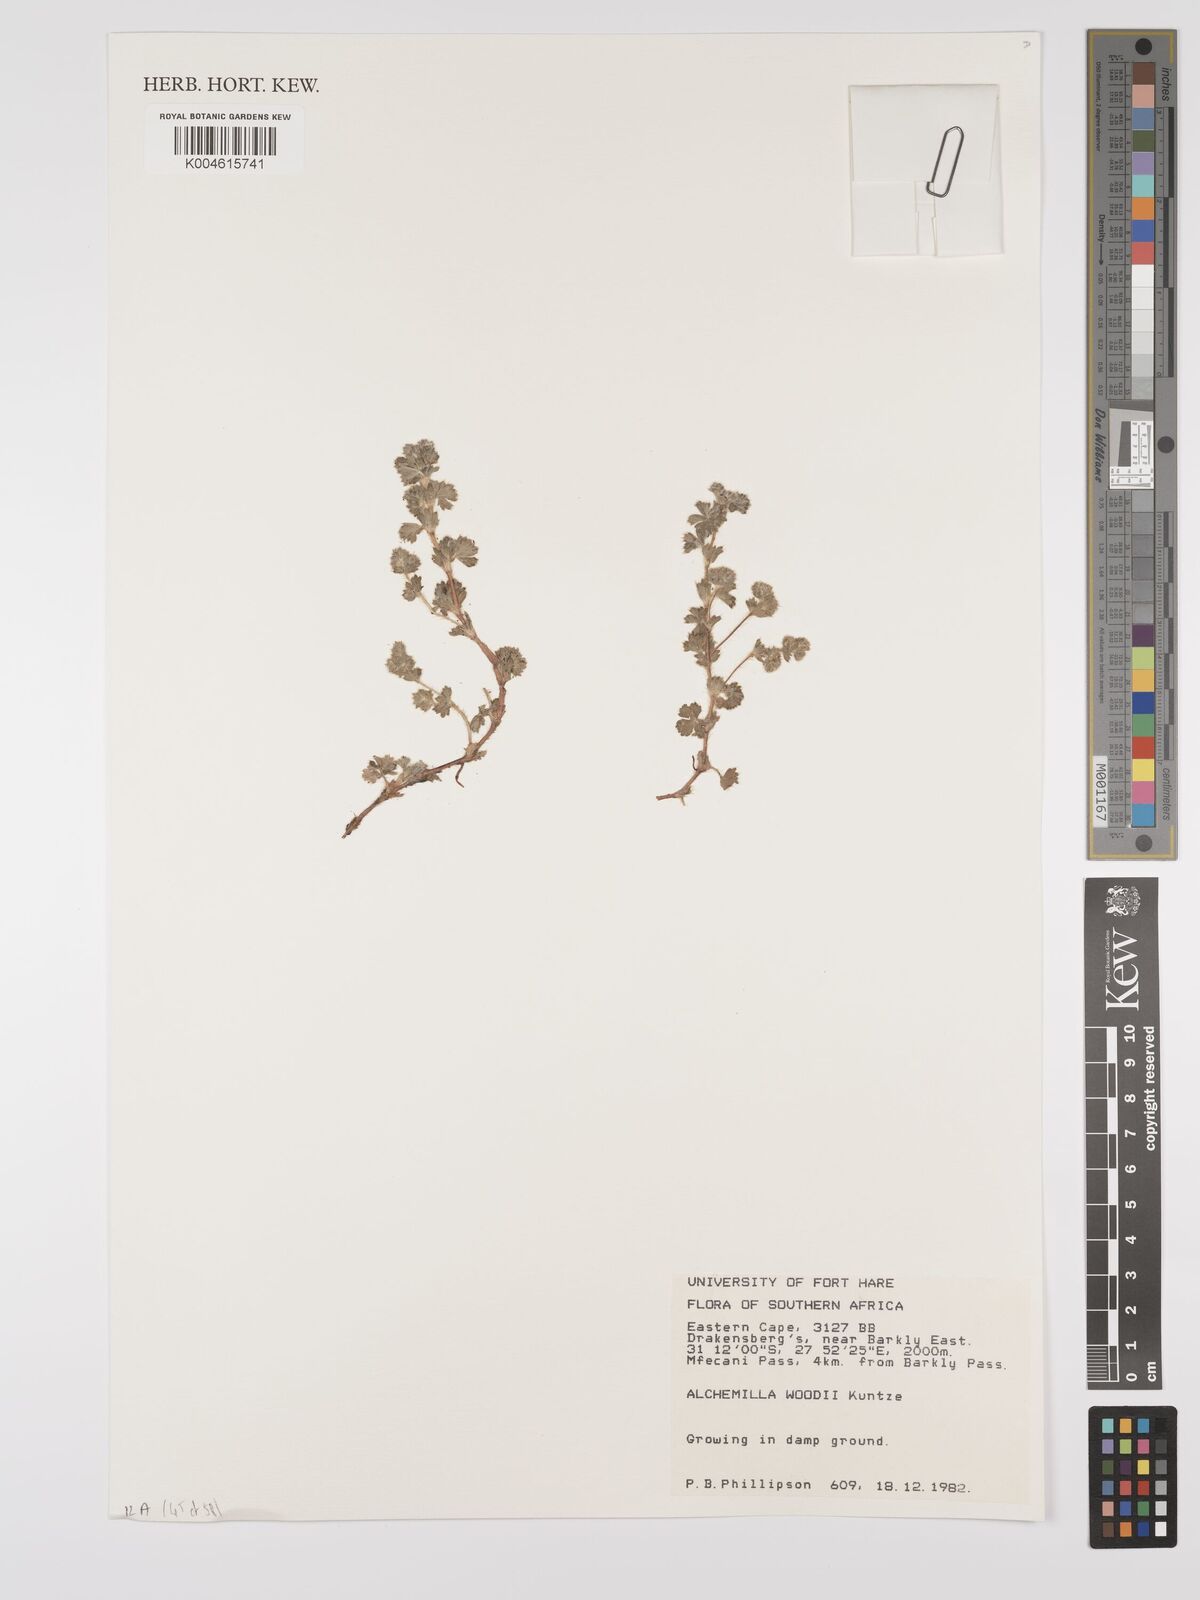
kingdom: Plantae
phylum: Tracheophyta
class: Magnoliopsida
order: Rosales
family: Rosaceae
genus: Alchemilla
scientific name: Alchemilla woodii
